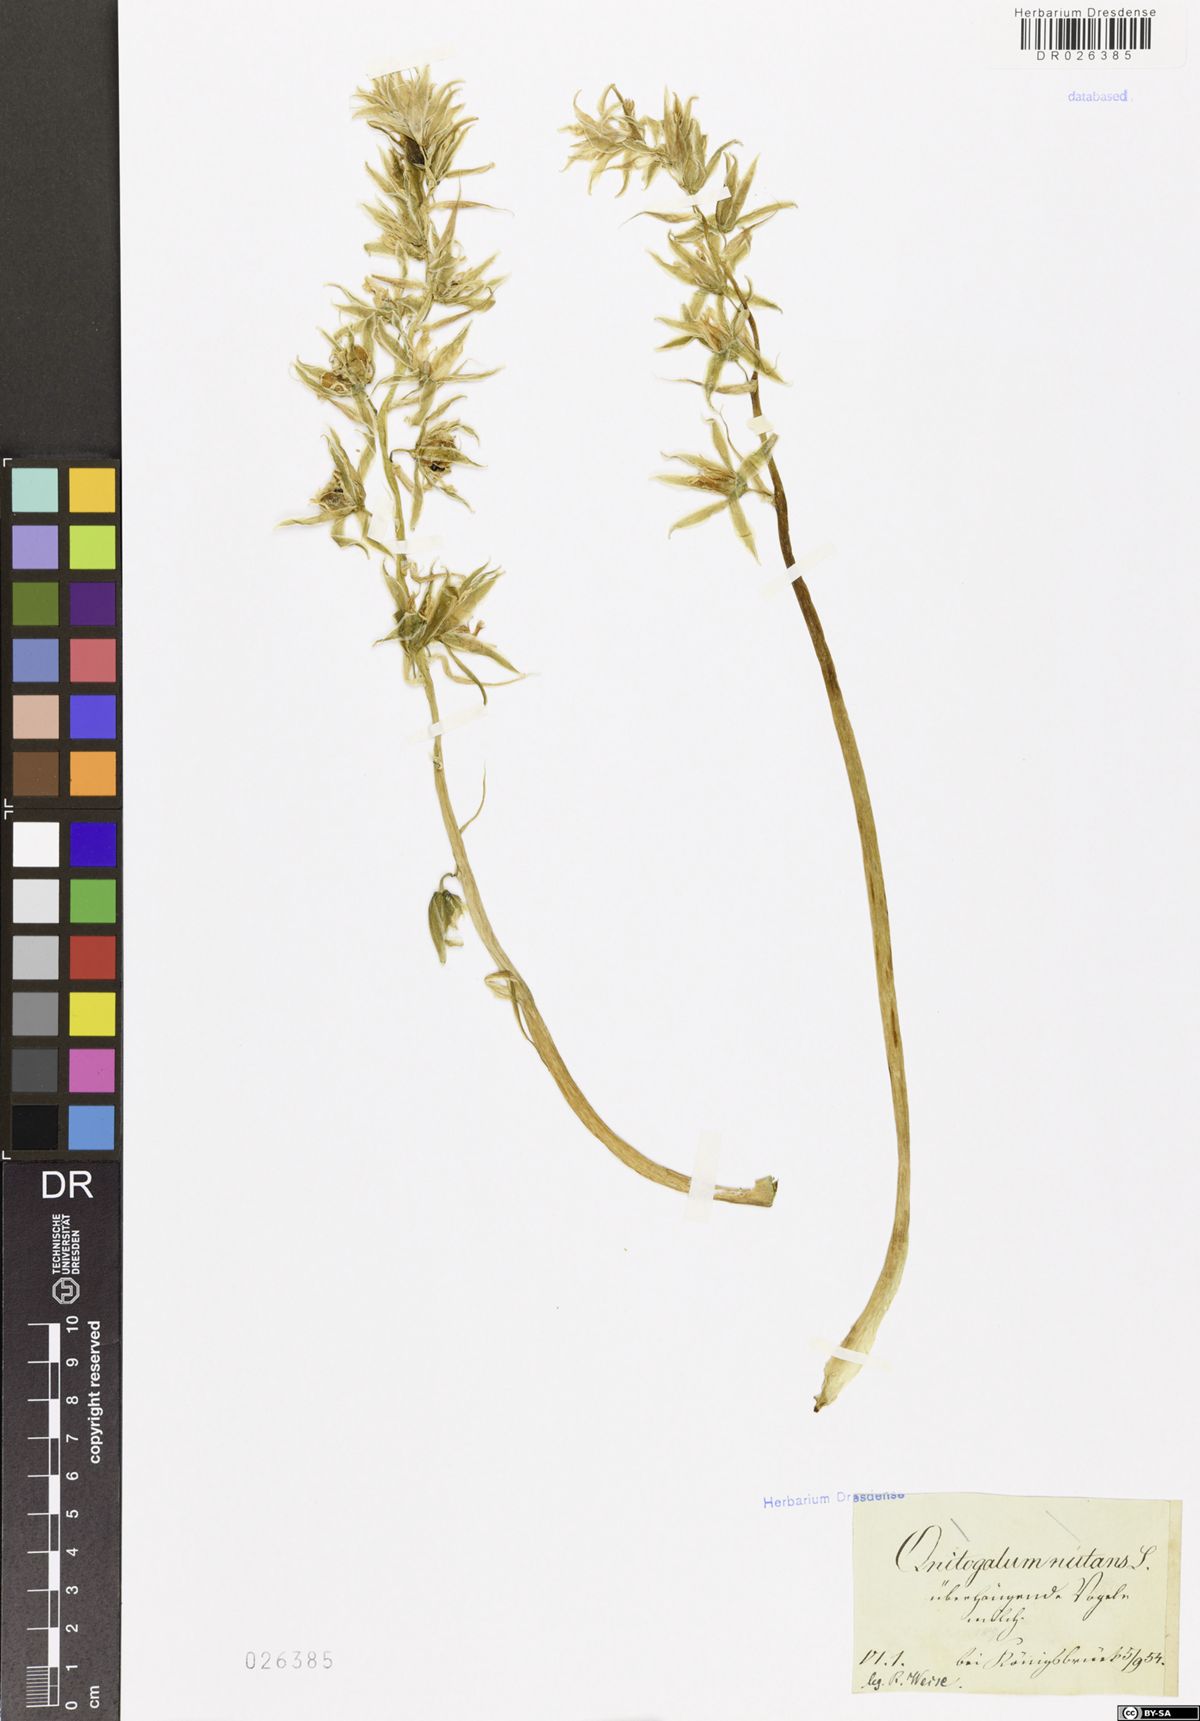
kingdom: Plantae
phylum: Tracheophyta
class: Liliopsida
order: Asparagales
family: Asparagaceae
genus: Ornithogalum
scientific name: Ornithogalum nutans
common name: Drooping star-of-bethlehem
